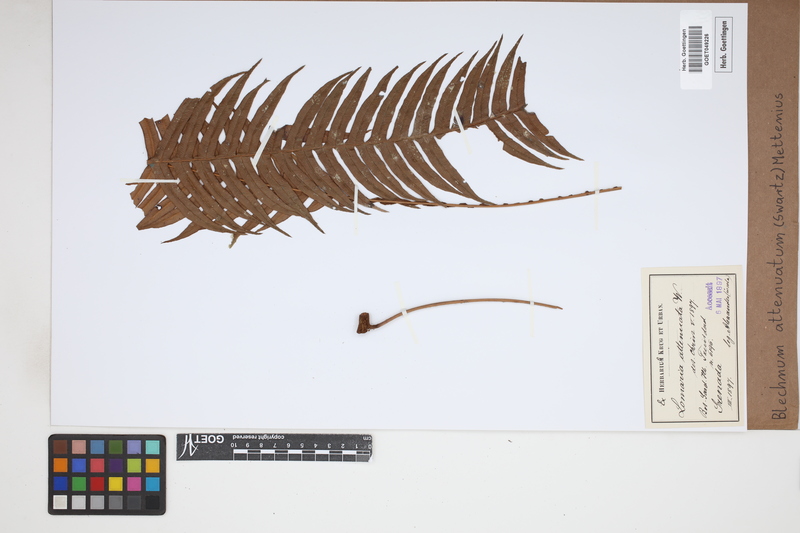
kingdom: Plantae
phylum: Tracheophyta
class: Polypodiopsida
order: Polypodiales
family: Blechnaceae
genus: Lomaridium
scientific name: Lomaridium attenuatum
